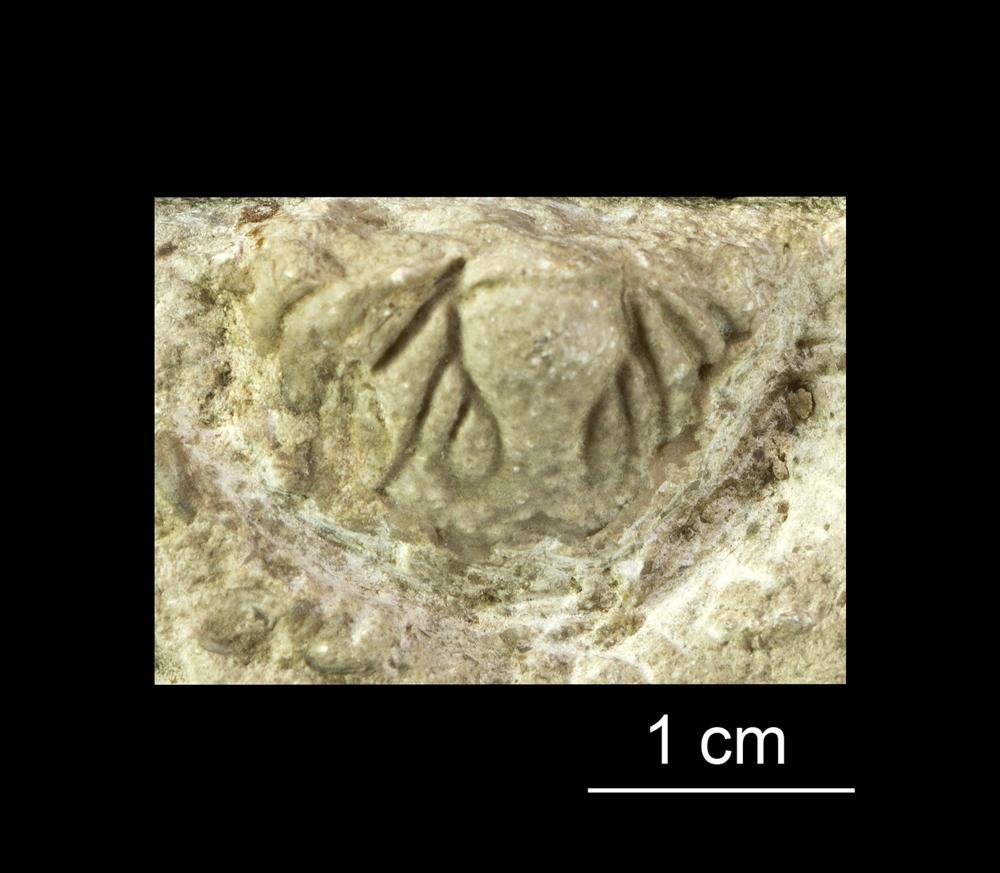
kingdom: Animalia
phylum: Arthropoda
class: Trilobita
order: Lichida
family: Lichidae
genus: Hoplolichas
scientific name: Hoplolichas
